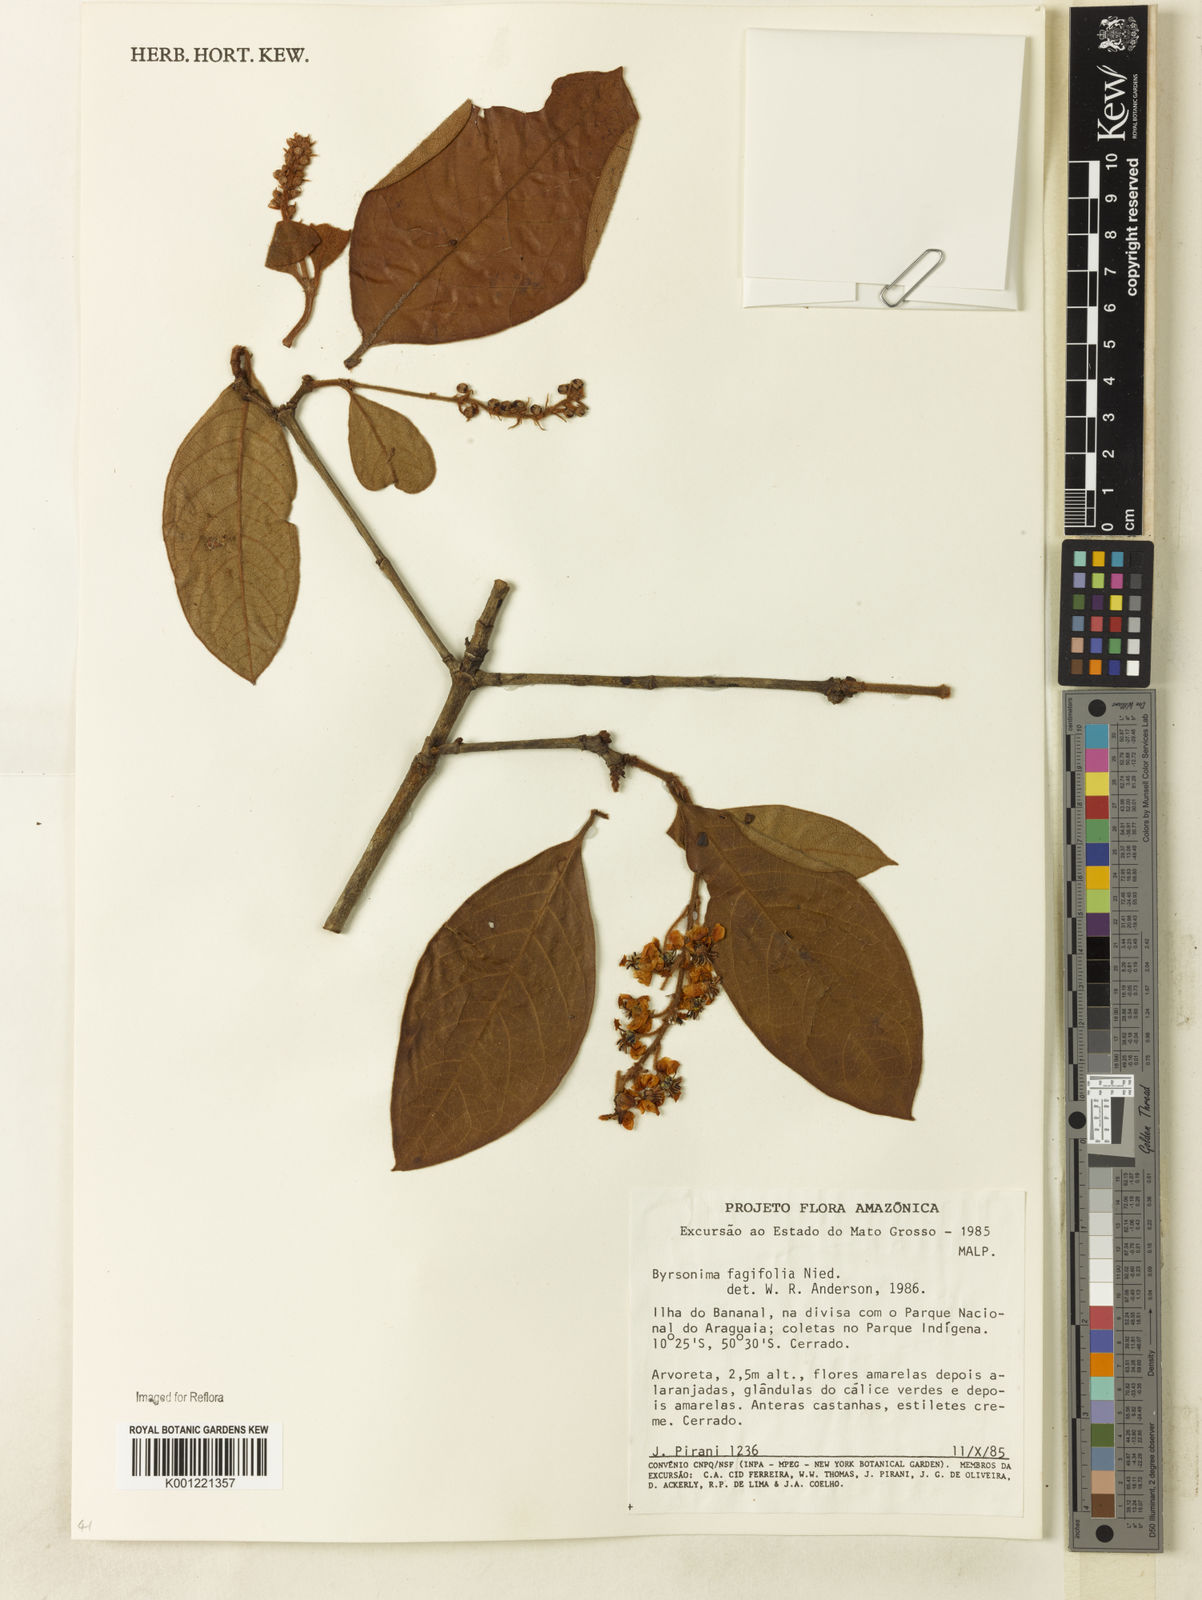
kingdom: Plantae
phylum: Tracheophyta
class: Magnoliopsida
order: Malpighiales
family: Malpighiaceae
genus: Byrsonima
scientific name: Byrsonima crassifolia
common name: Golden spoon
